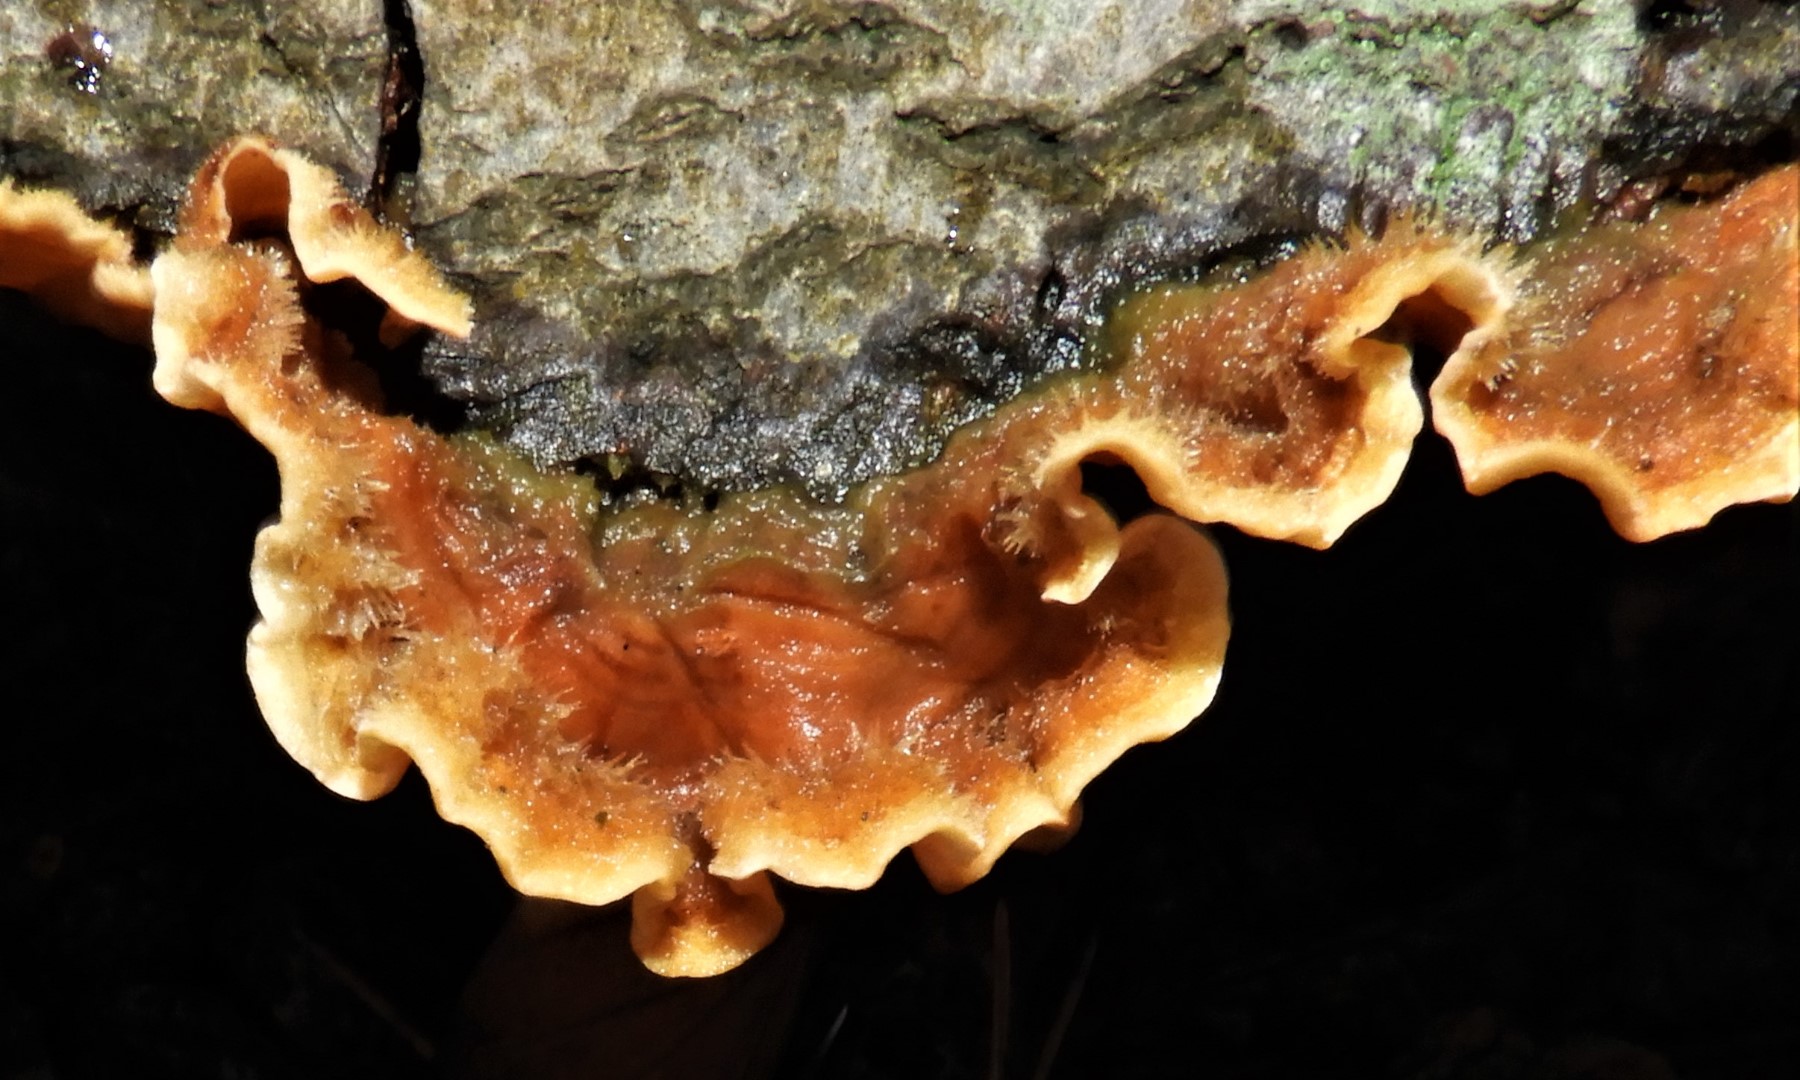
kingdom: Fungi
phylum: Basidiomycota
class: Agaricomycetes
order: Russulales
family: Stereaceae
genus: Stereum
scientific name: Stereum hirsutum
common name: håret lædersvamp
